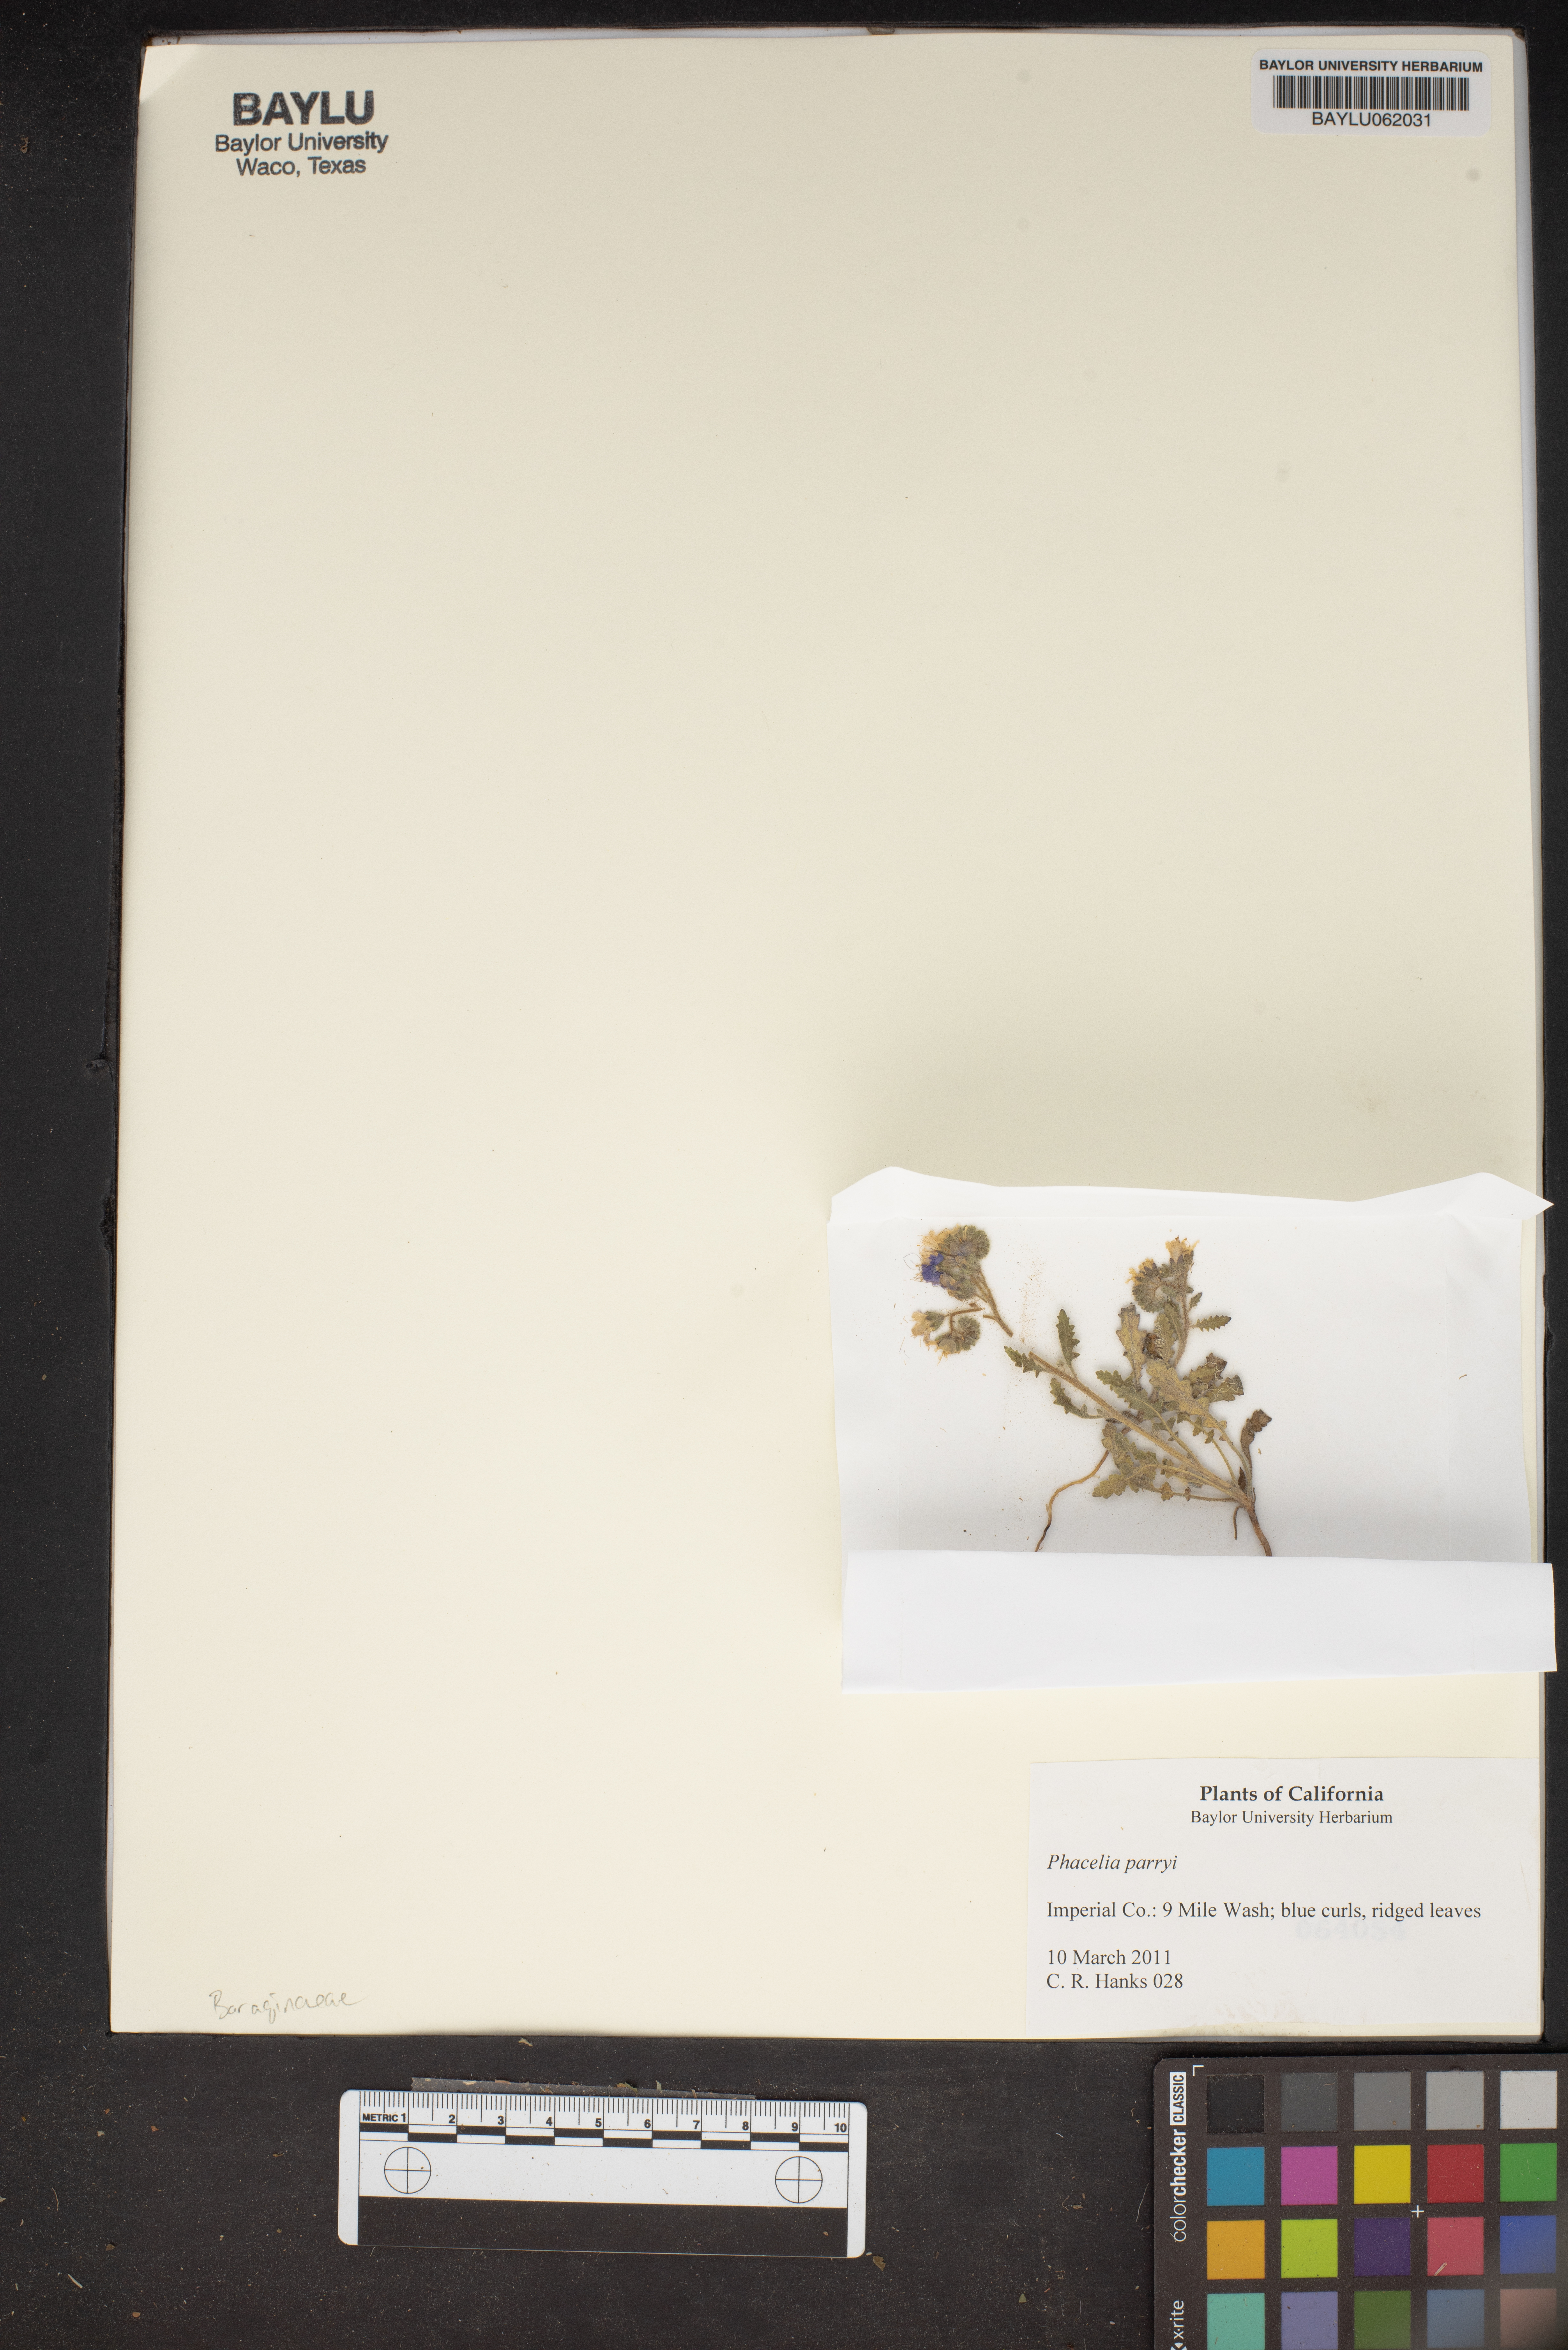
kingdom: Plantae
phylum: Tracheophyta
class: Magnoliopsida
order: Boraginales
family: Hydrophyllaceae
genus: Phacelia
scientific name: Phacelia parryi
